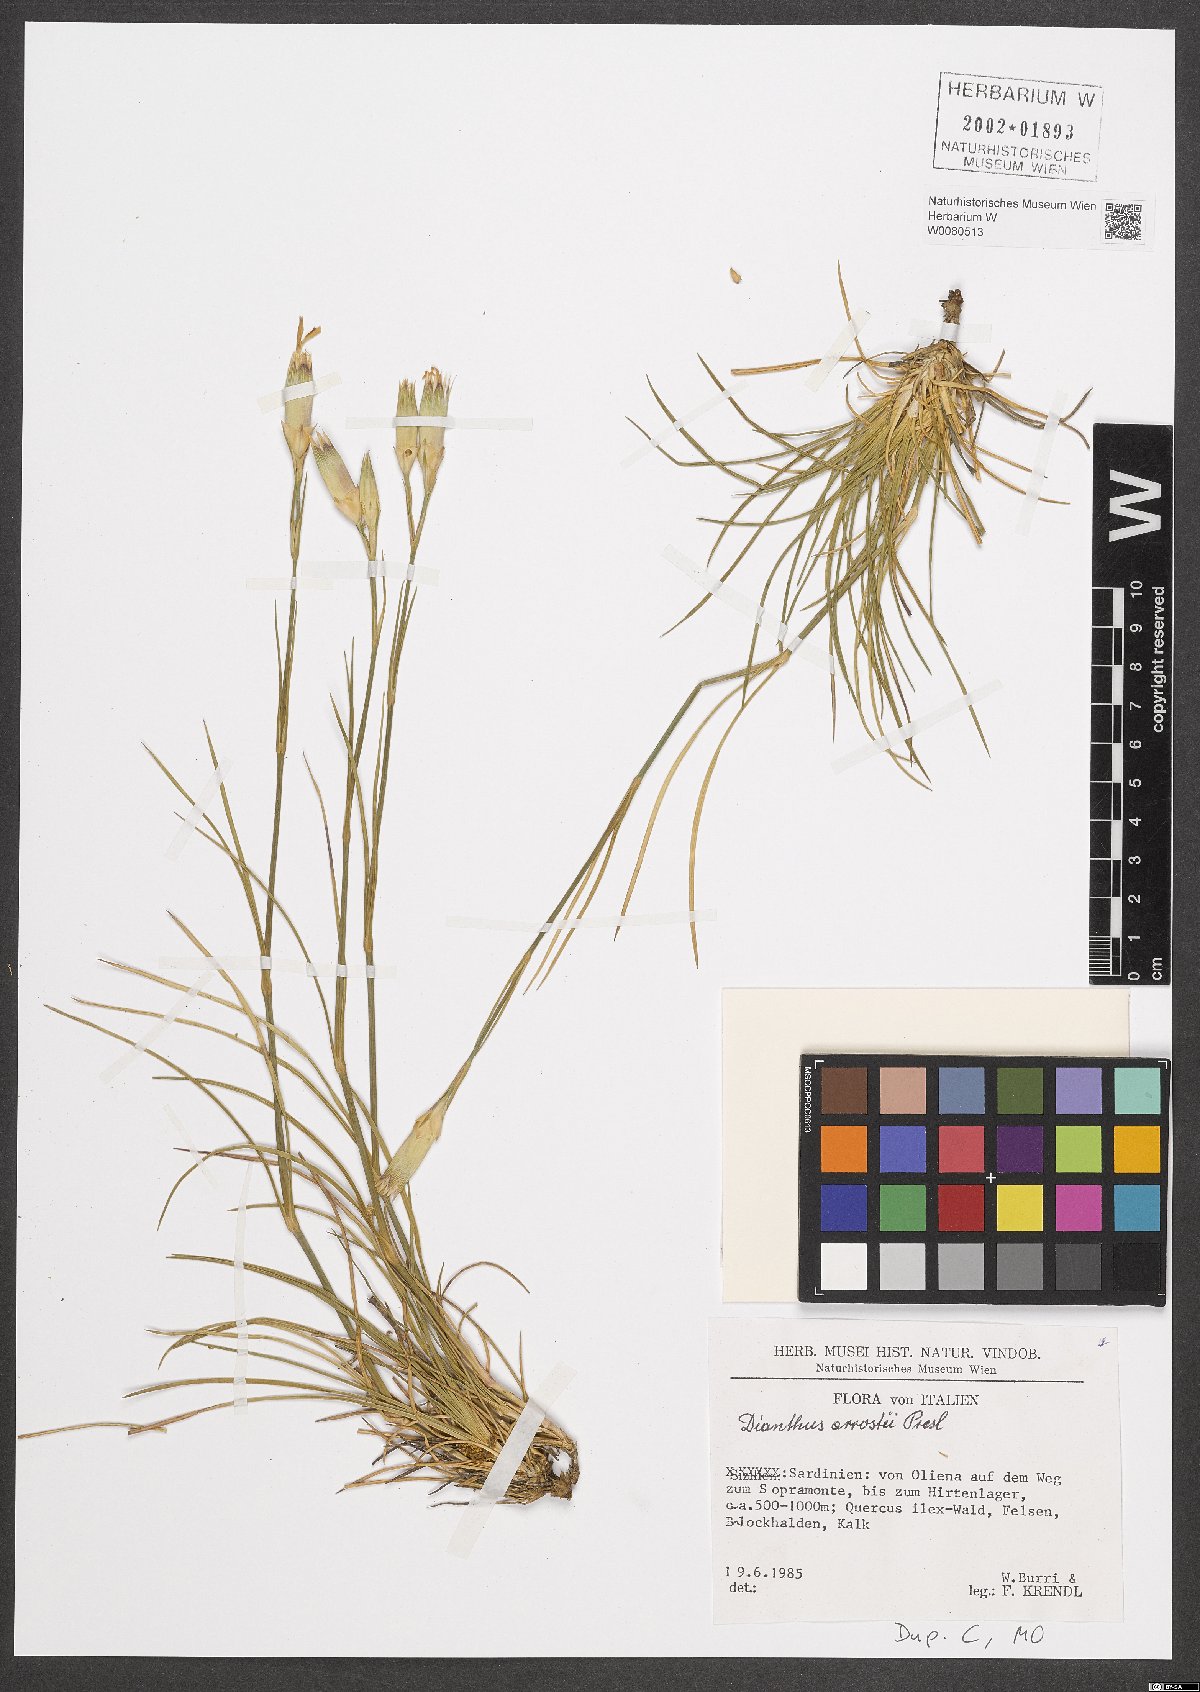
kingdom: Plantae
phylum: Tracheophyta
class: Magnoliopsida
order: Caryophyllales
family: Caryophyllaceae
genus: Dianthus
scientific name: Dianthus arrostii
